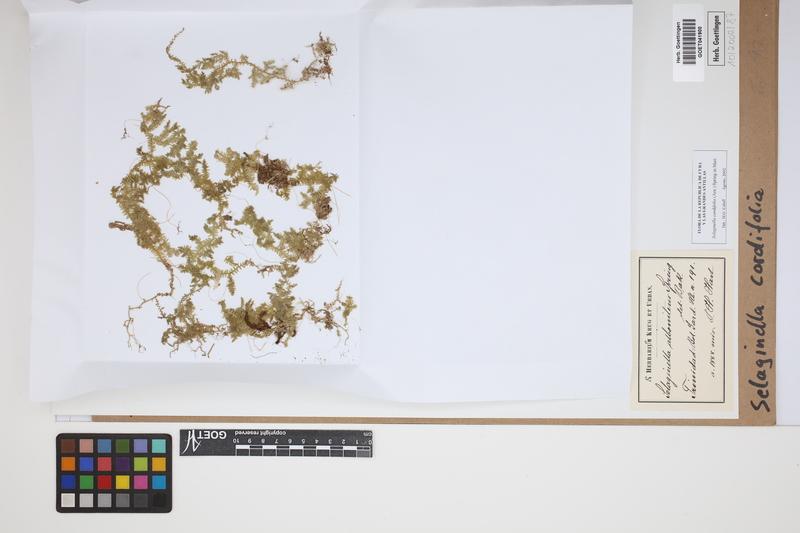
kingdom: Plantae
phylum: Tracheophyta
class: Lycopodiopsida
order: Selaginellales
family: Selaginellaceae
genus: Selaginella
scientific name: Selaginella cordifolia
